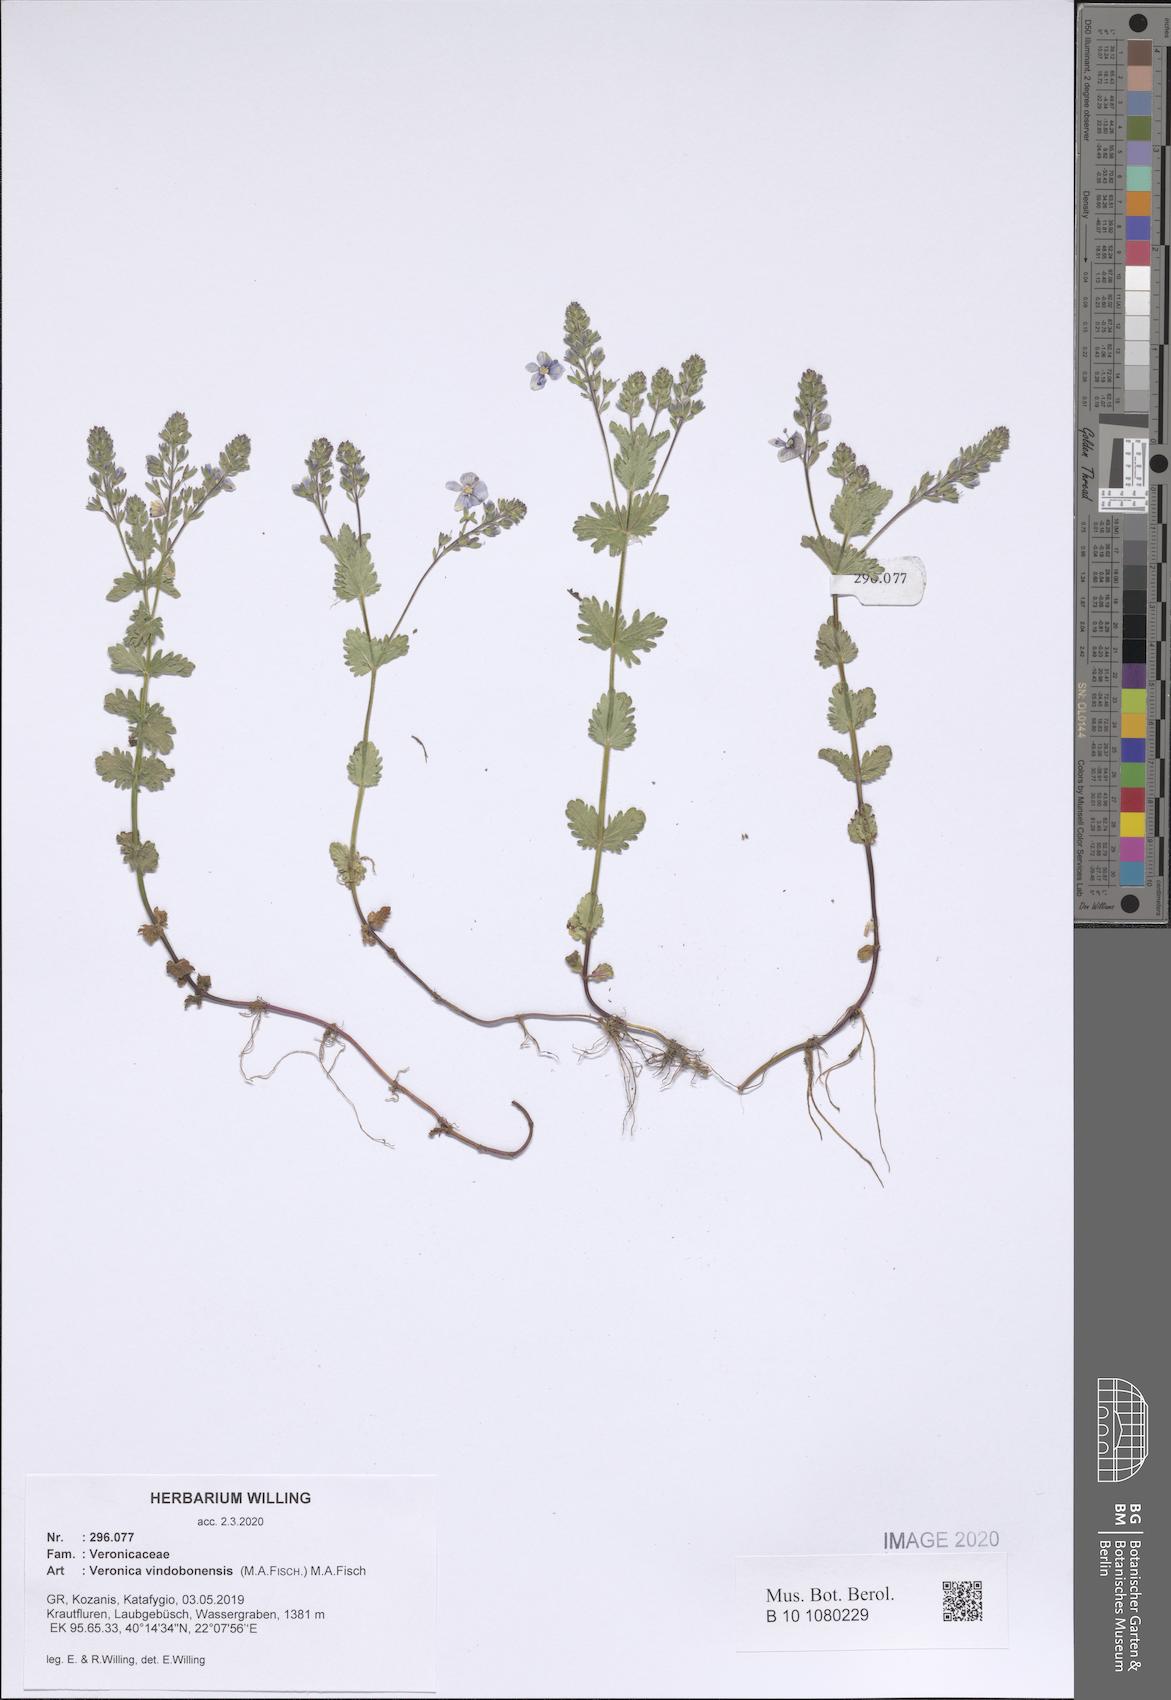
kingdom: Plantae
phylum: Tracheophyta
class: Magnoliopsida
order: Lamiales
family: Plantaginaceae
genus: Veronica
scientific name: Veronica vindobonensis
